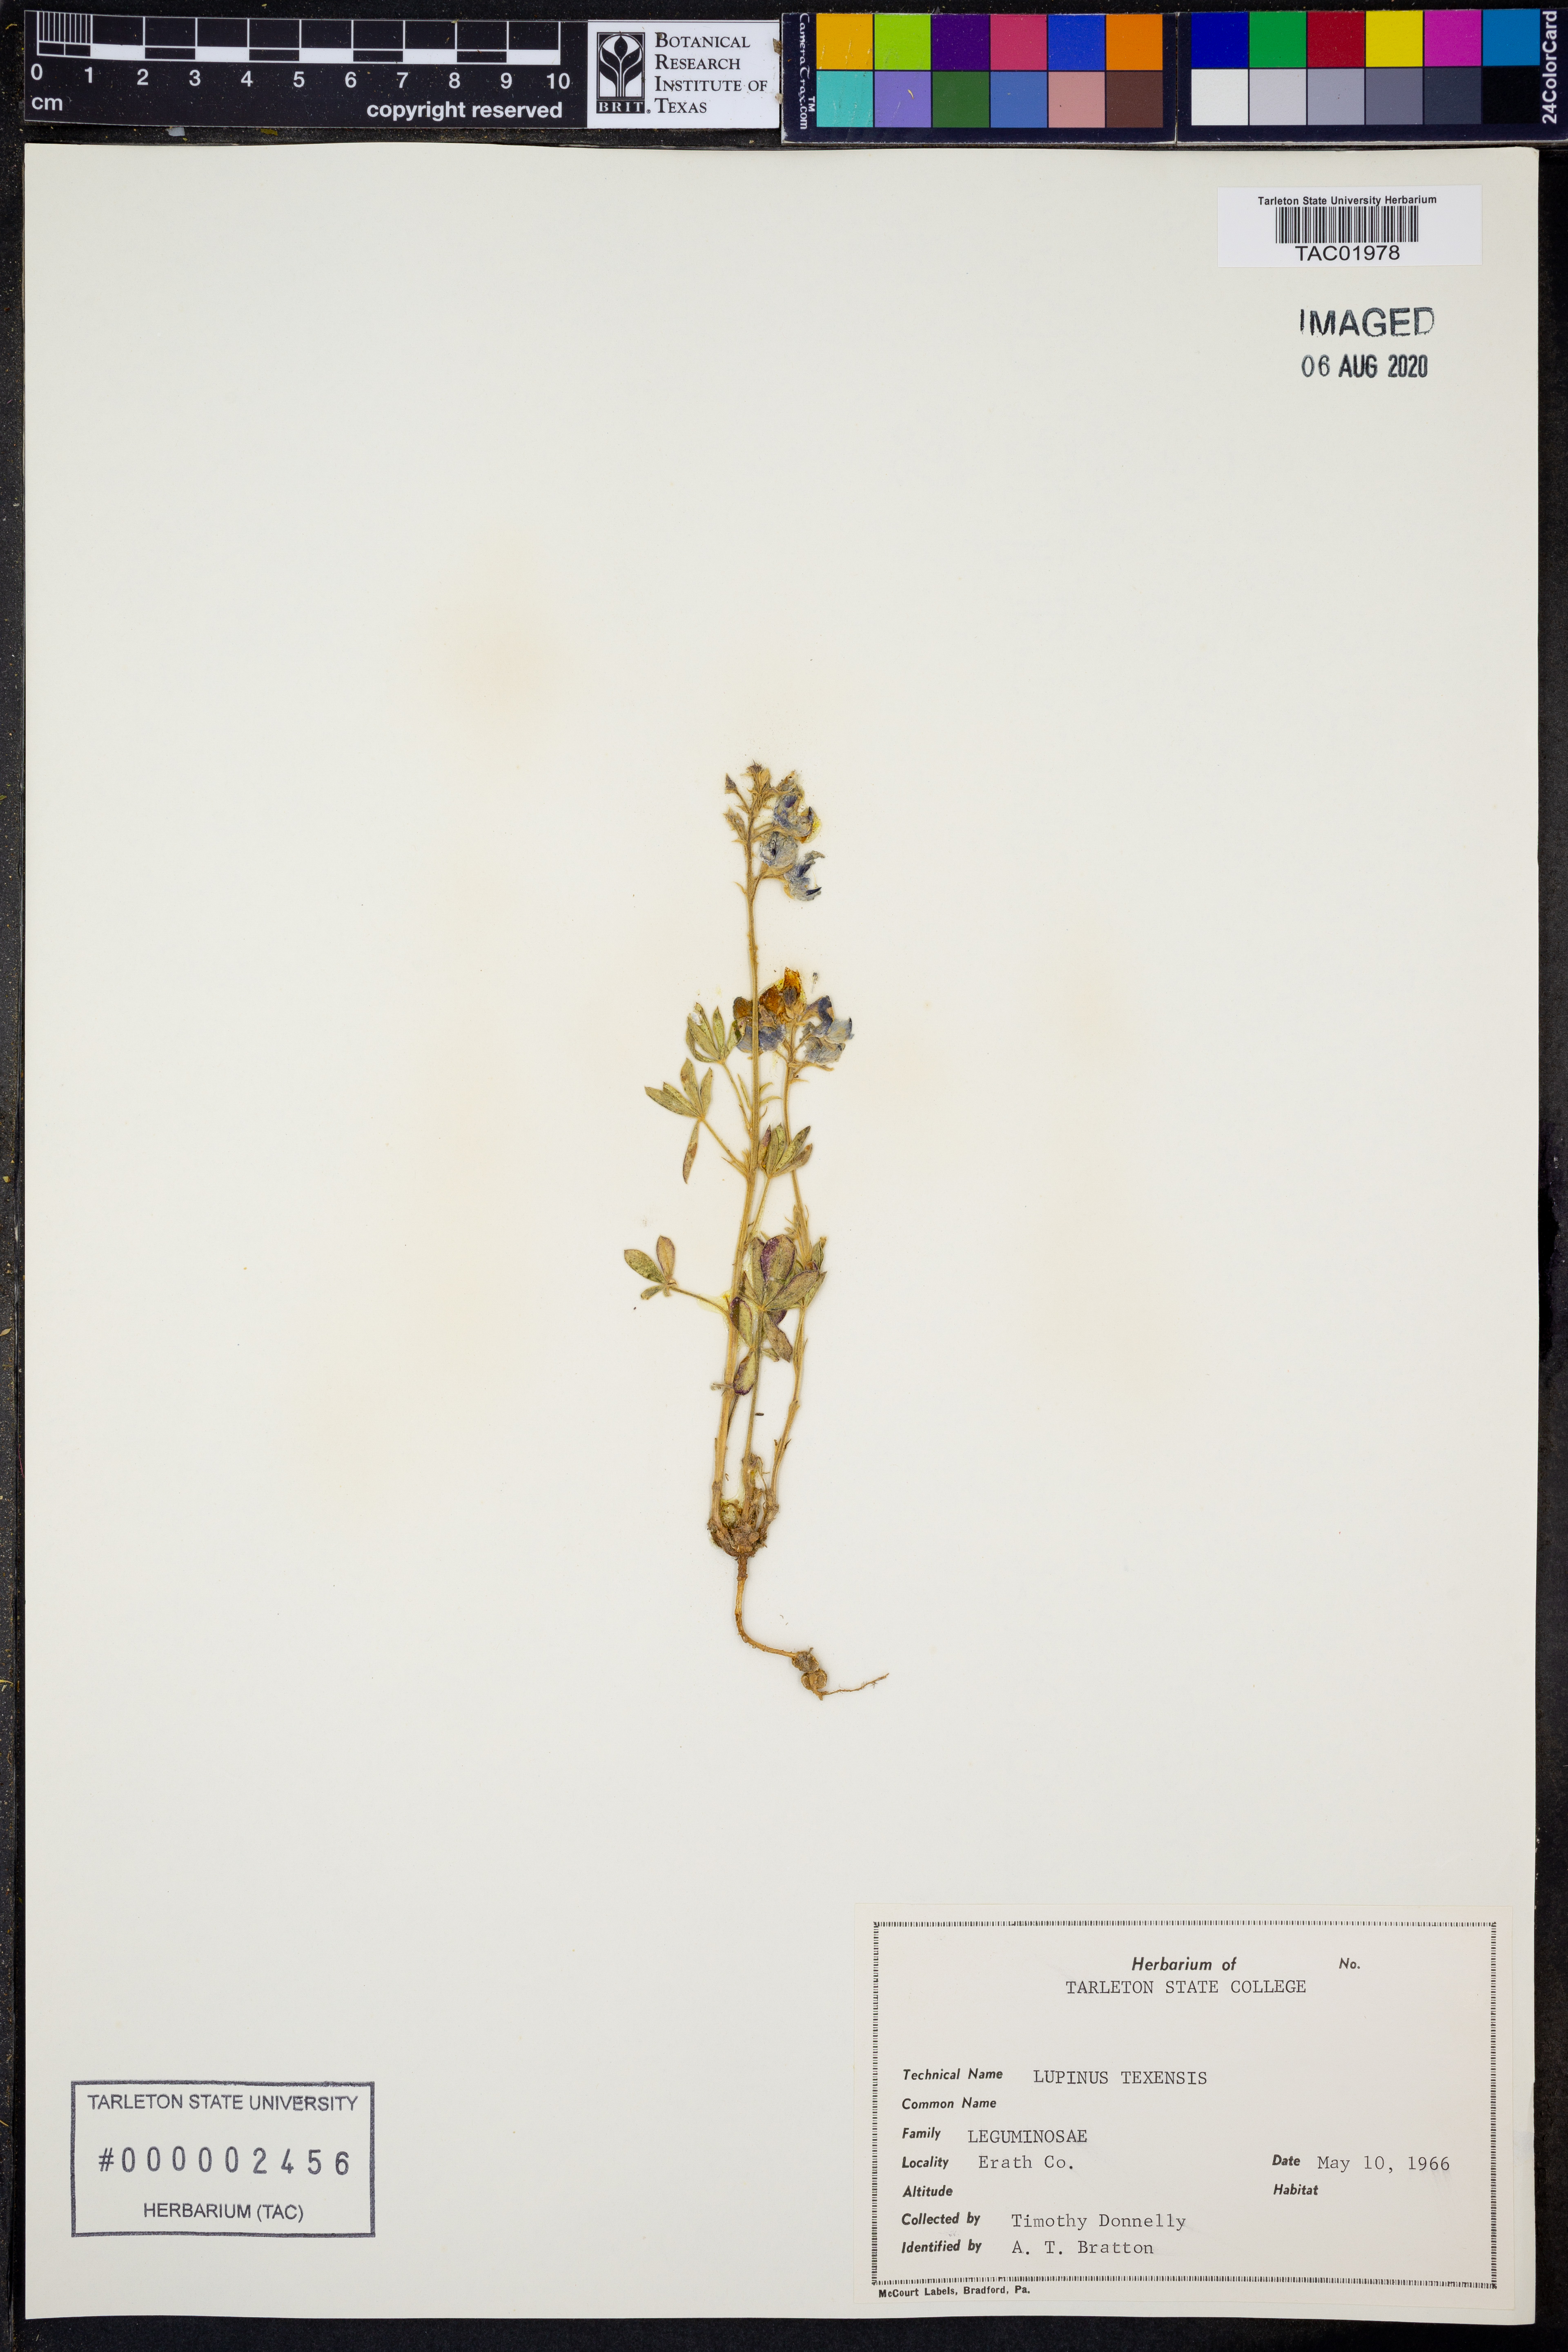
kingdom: Plantae
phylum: Tracheophyta
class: Magnoliopsida
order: Fabales
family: Fabaceae
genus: Lupinus
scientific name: Lupinus texensis
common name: Texas bluebonnet
